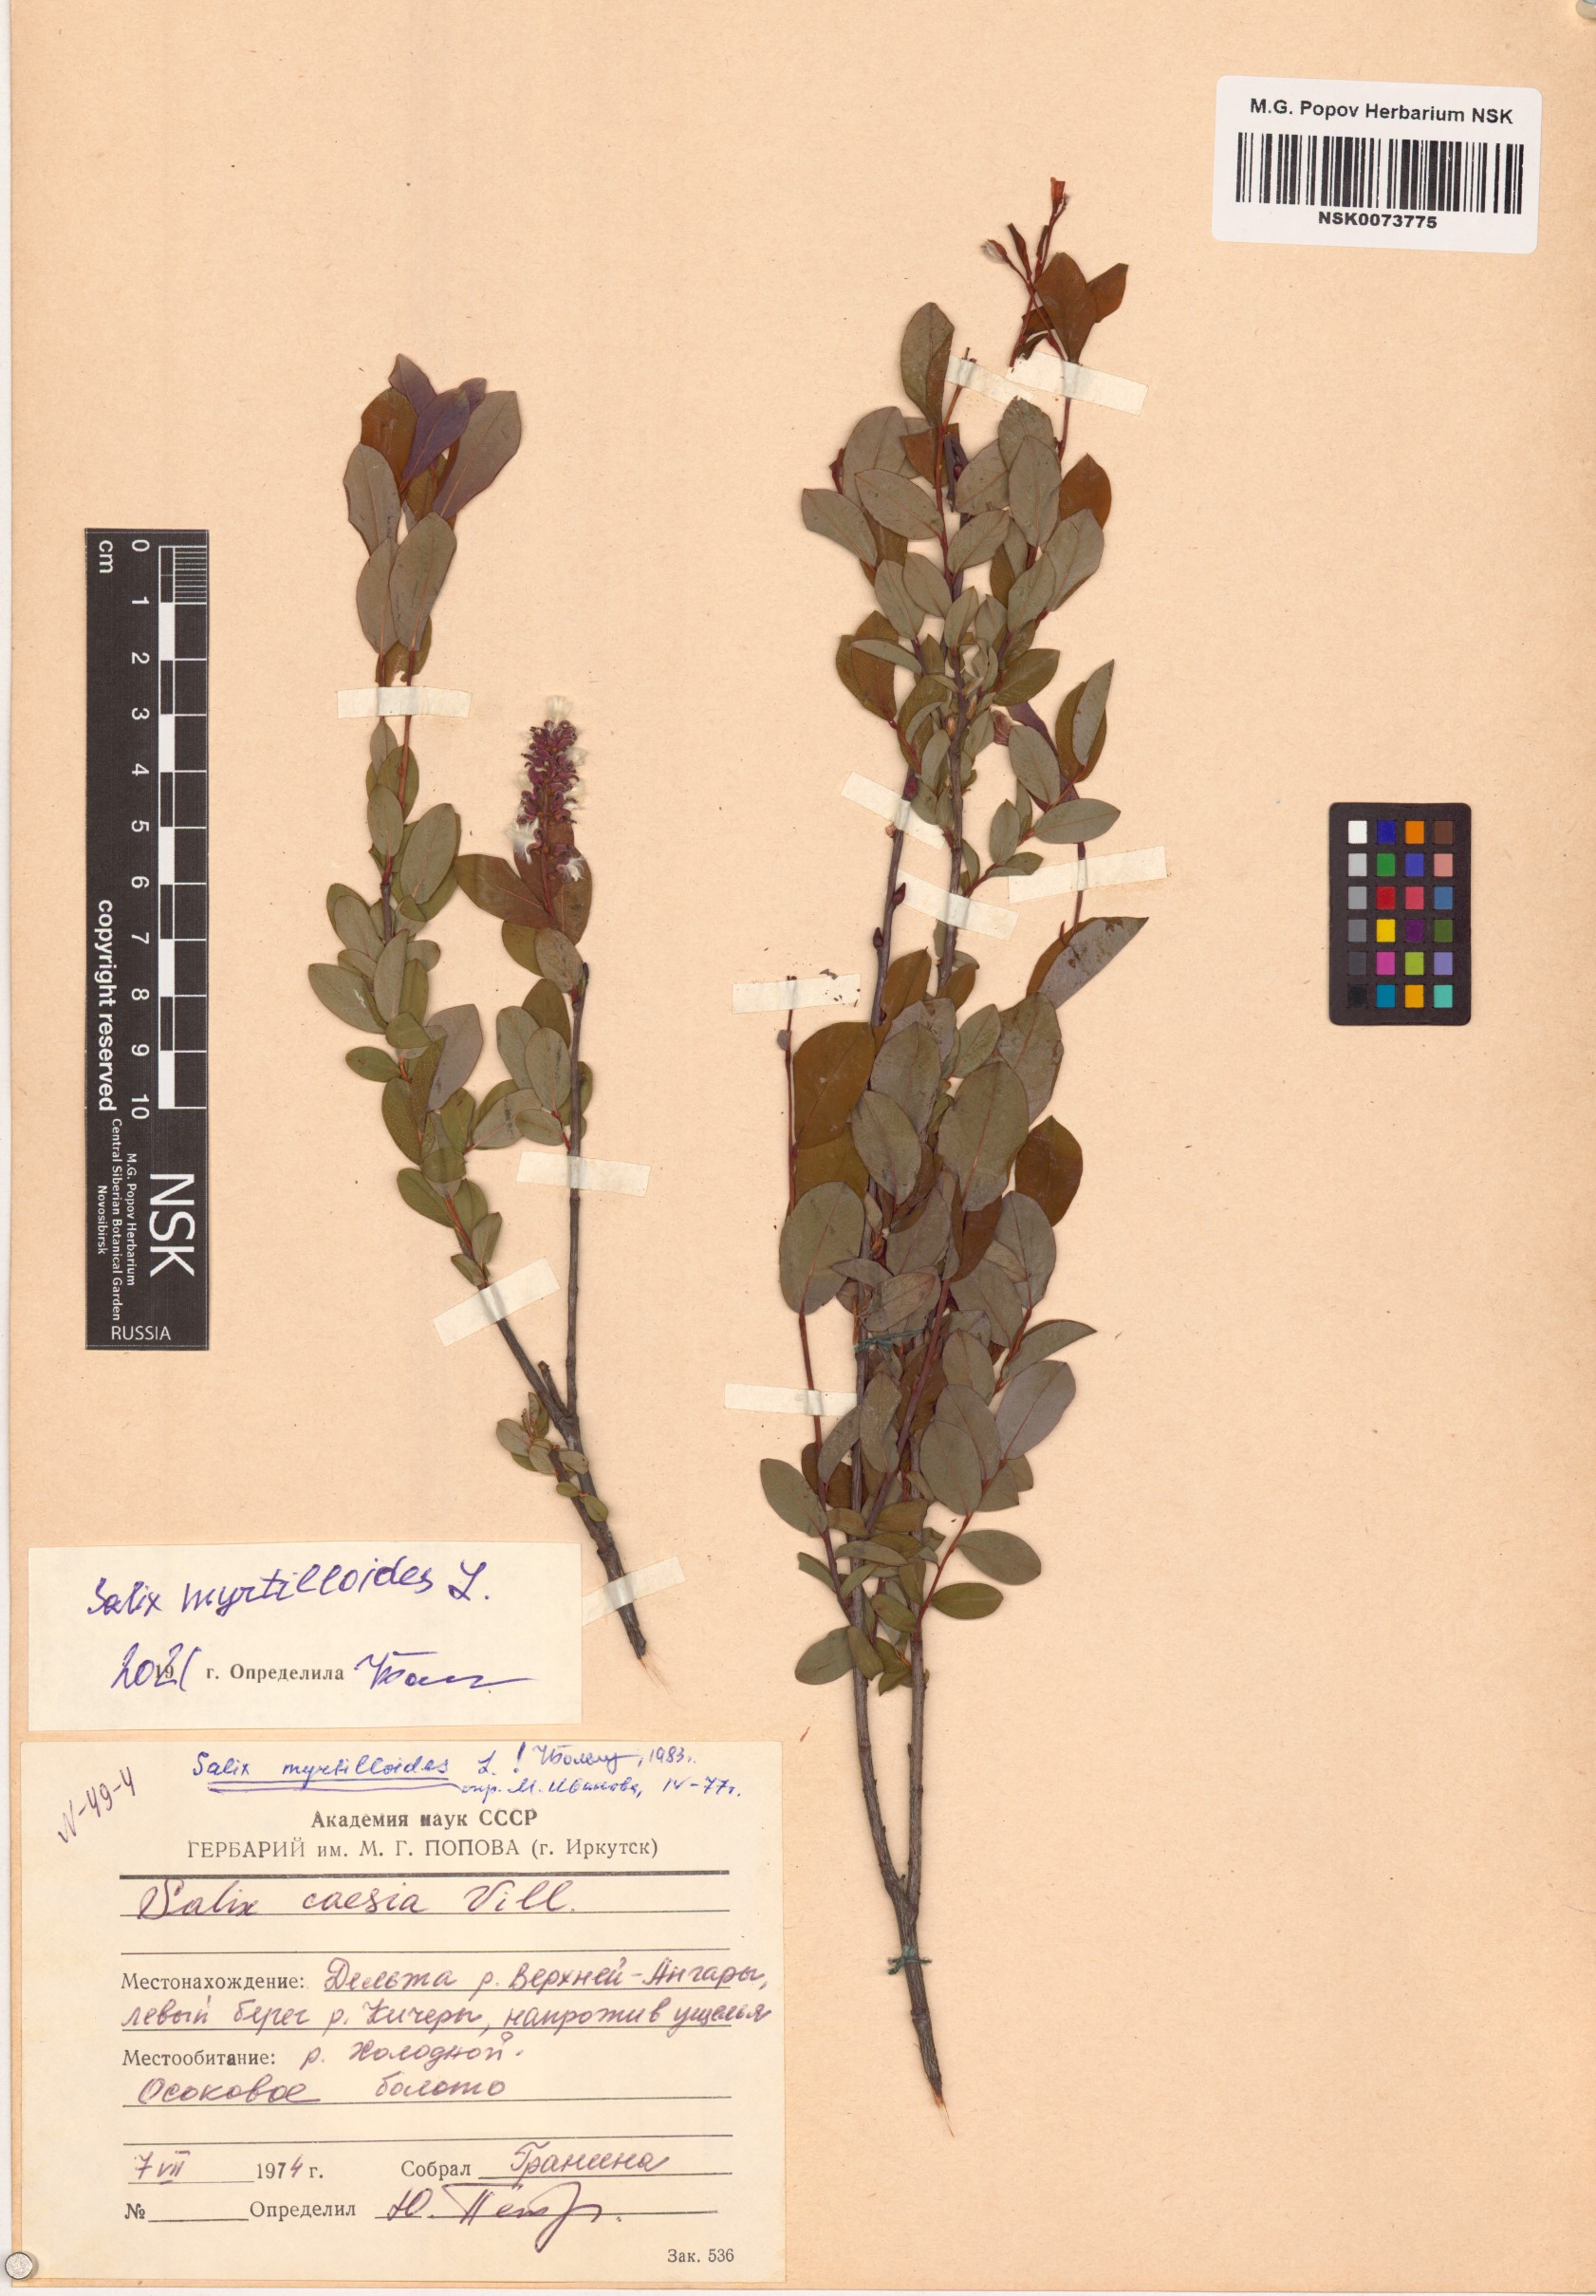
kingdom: Plantae
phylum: Tracheophyta
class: Magnoliopsida
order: Malpighiales
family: Salicaceae
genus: Salix
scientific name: Salix myrtilloides
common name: Myrtle-leaved willow
